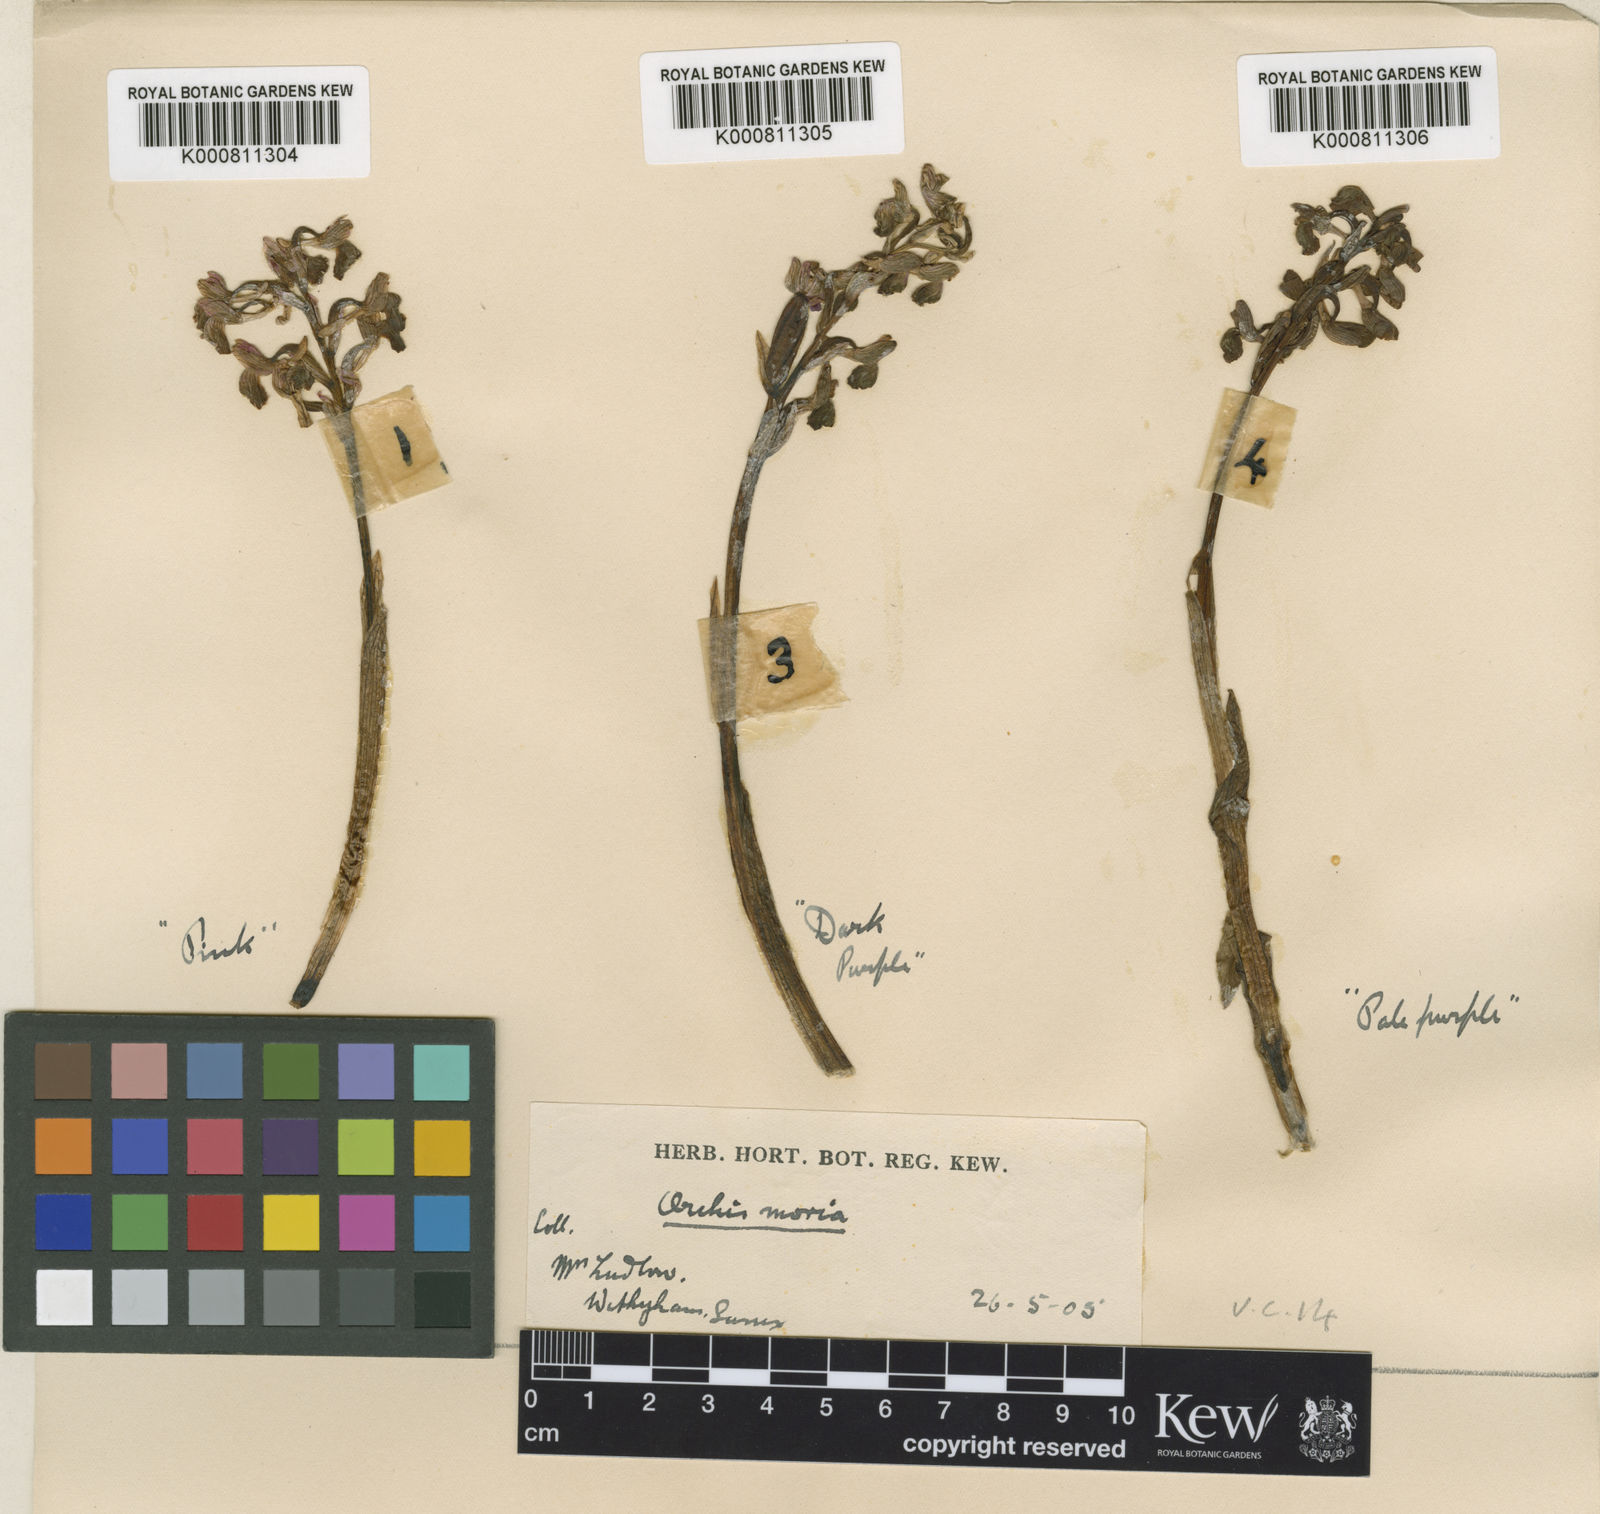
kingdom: Plantae
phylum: Tracheophyta
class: Liliopsida
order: Asparagales
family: Orchidaceae
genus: Anacamptis
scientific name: Anacamptis morio
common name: Green-winged orchid
